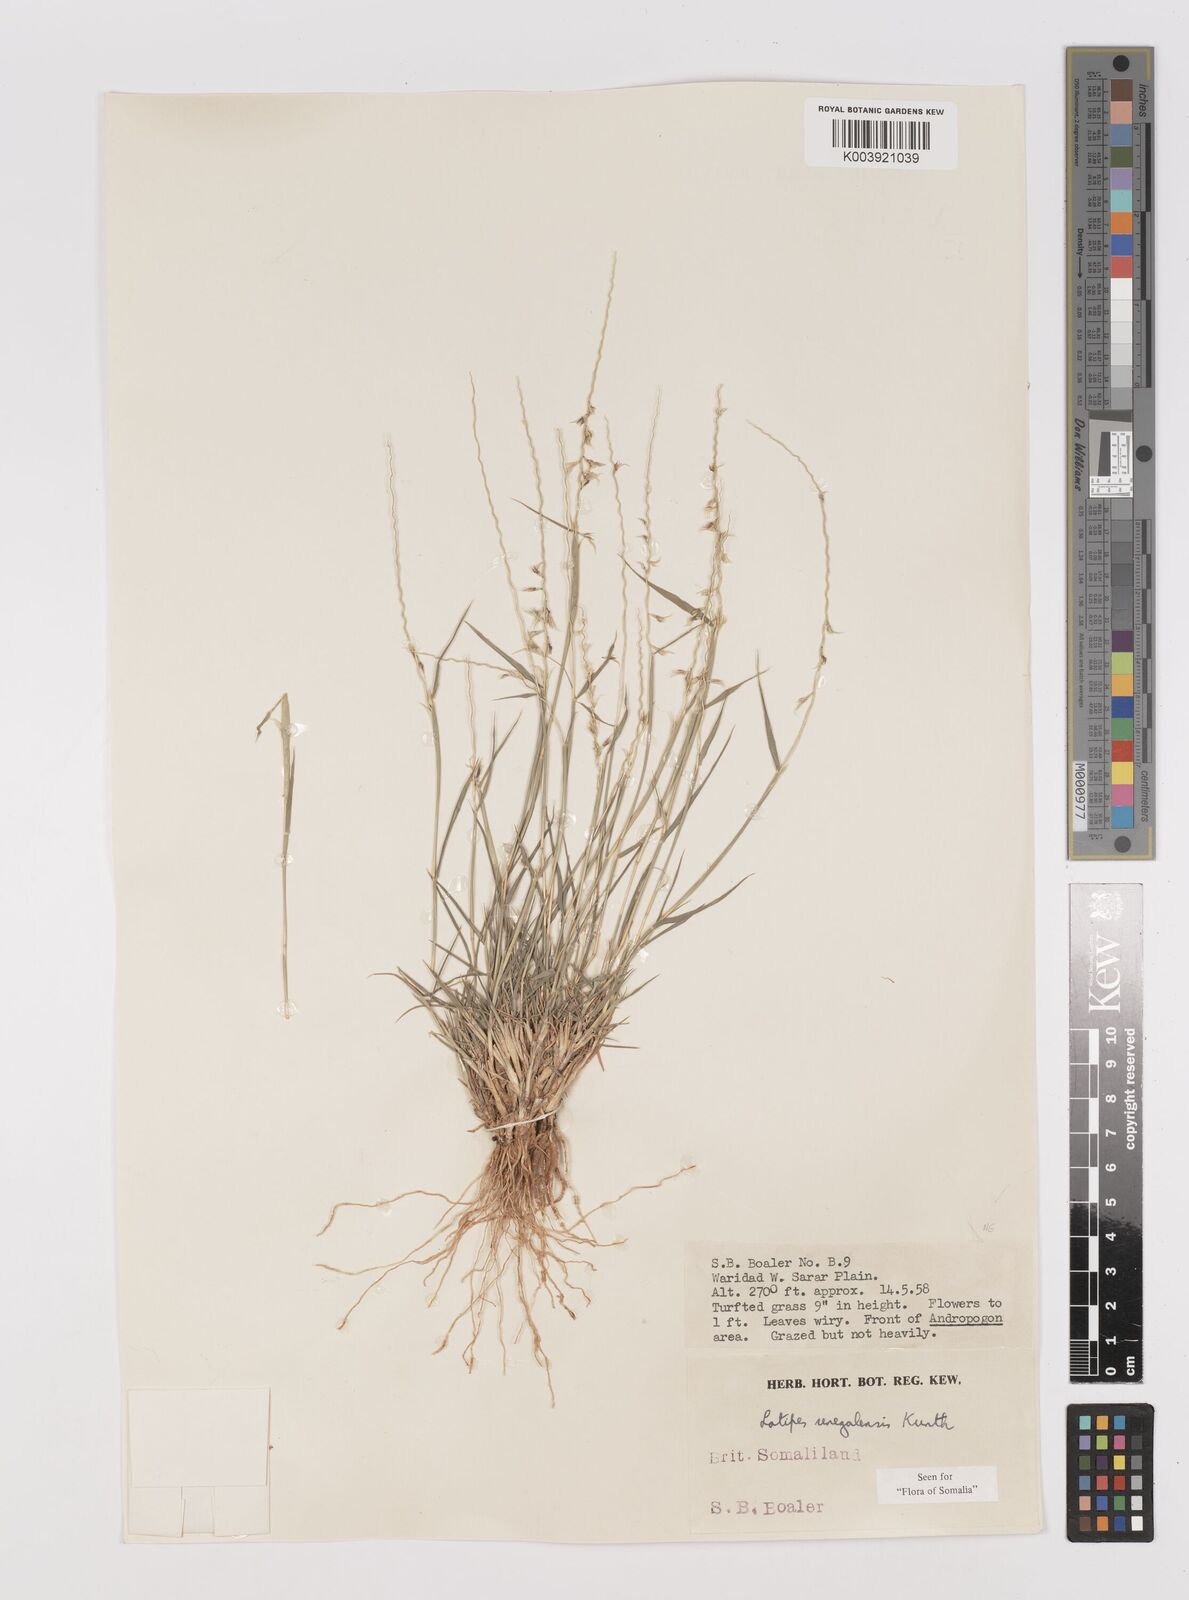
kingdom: Plantae
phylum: Tracheophyta
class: Liliopsida
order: Poales
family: Poaceae
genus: Leptothrium
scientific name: Leptothrium senegalense
